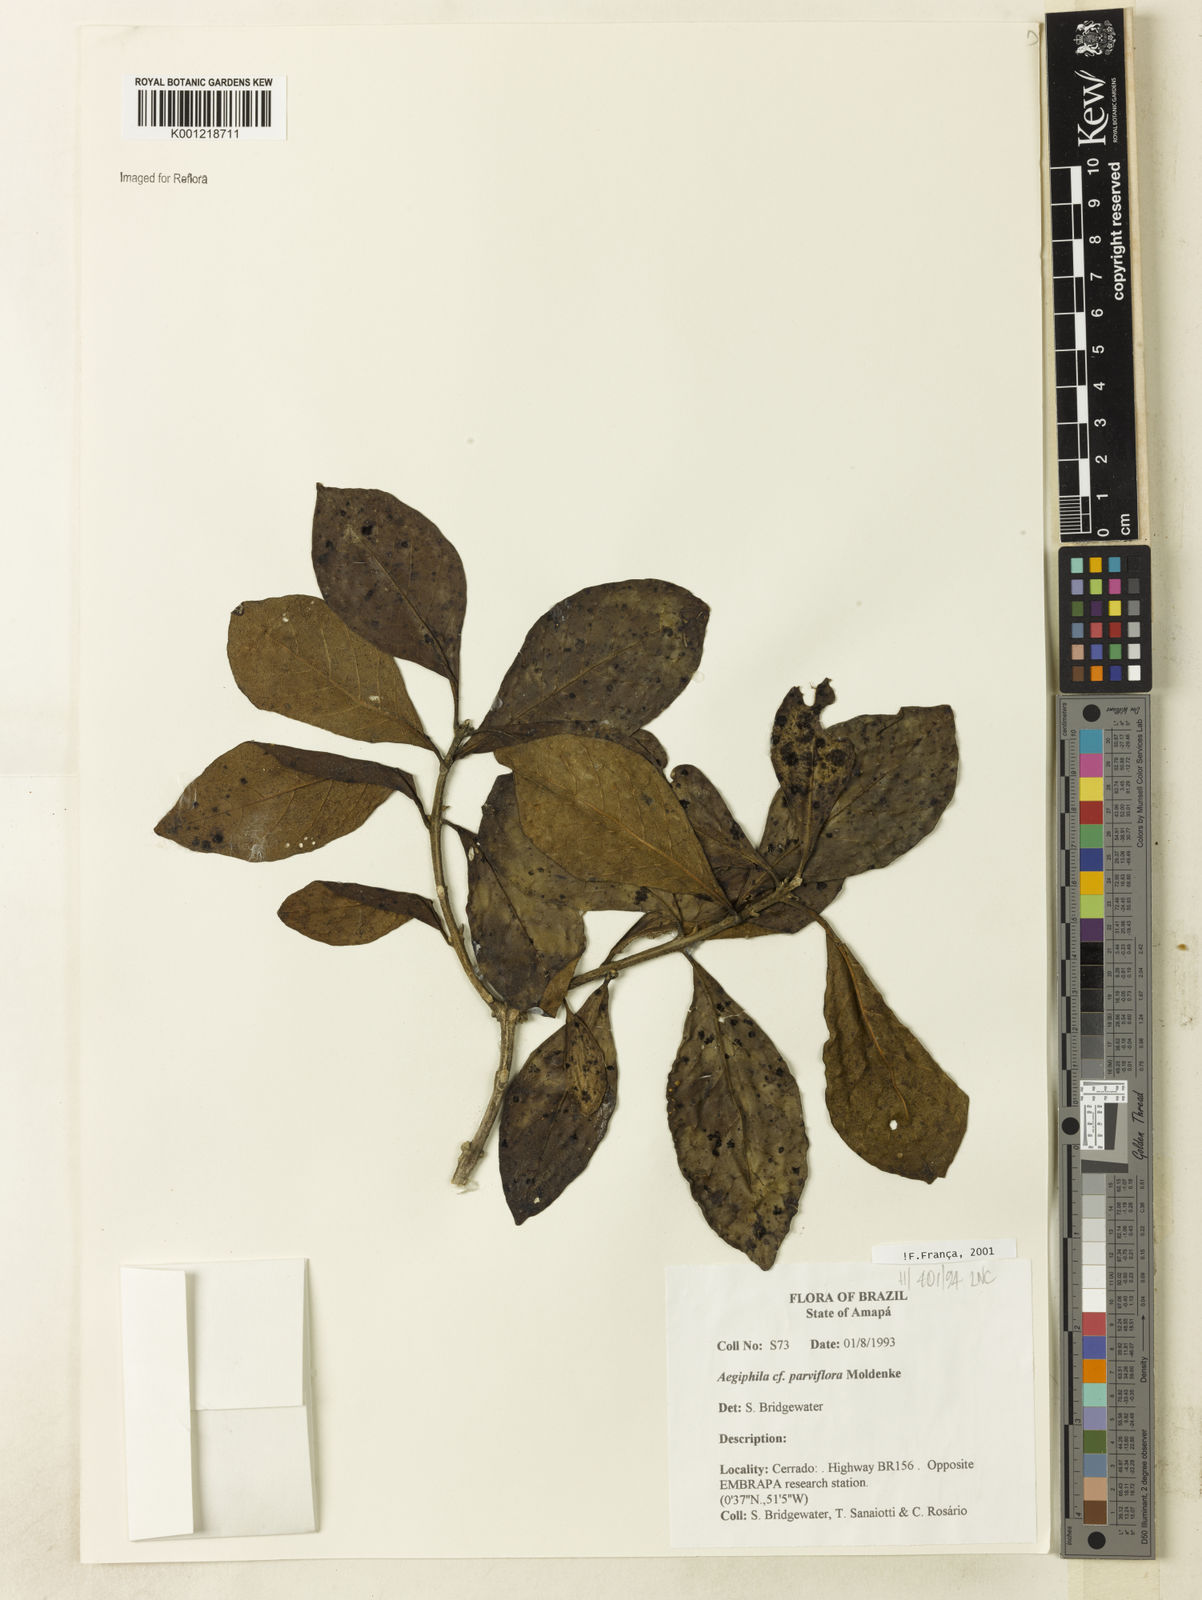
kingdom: Plantae
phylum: Tracheophyta
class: Magnoliopsida
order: Lamiales
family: Lamiaceae
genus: Aegiphila
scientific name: Aegiphila integrifolia
